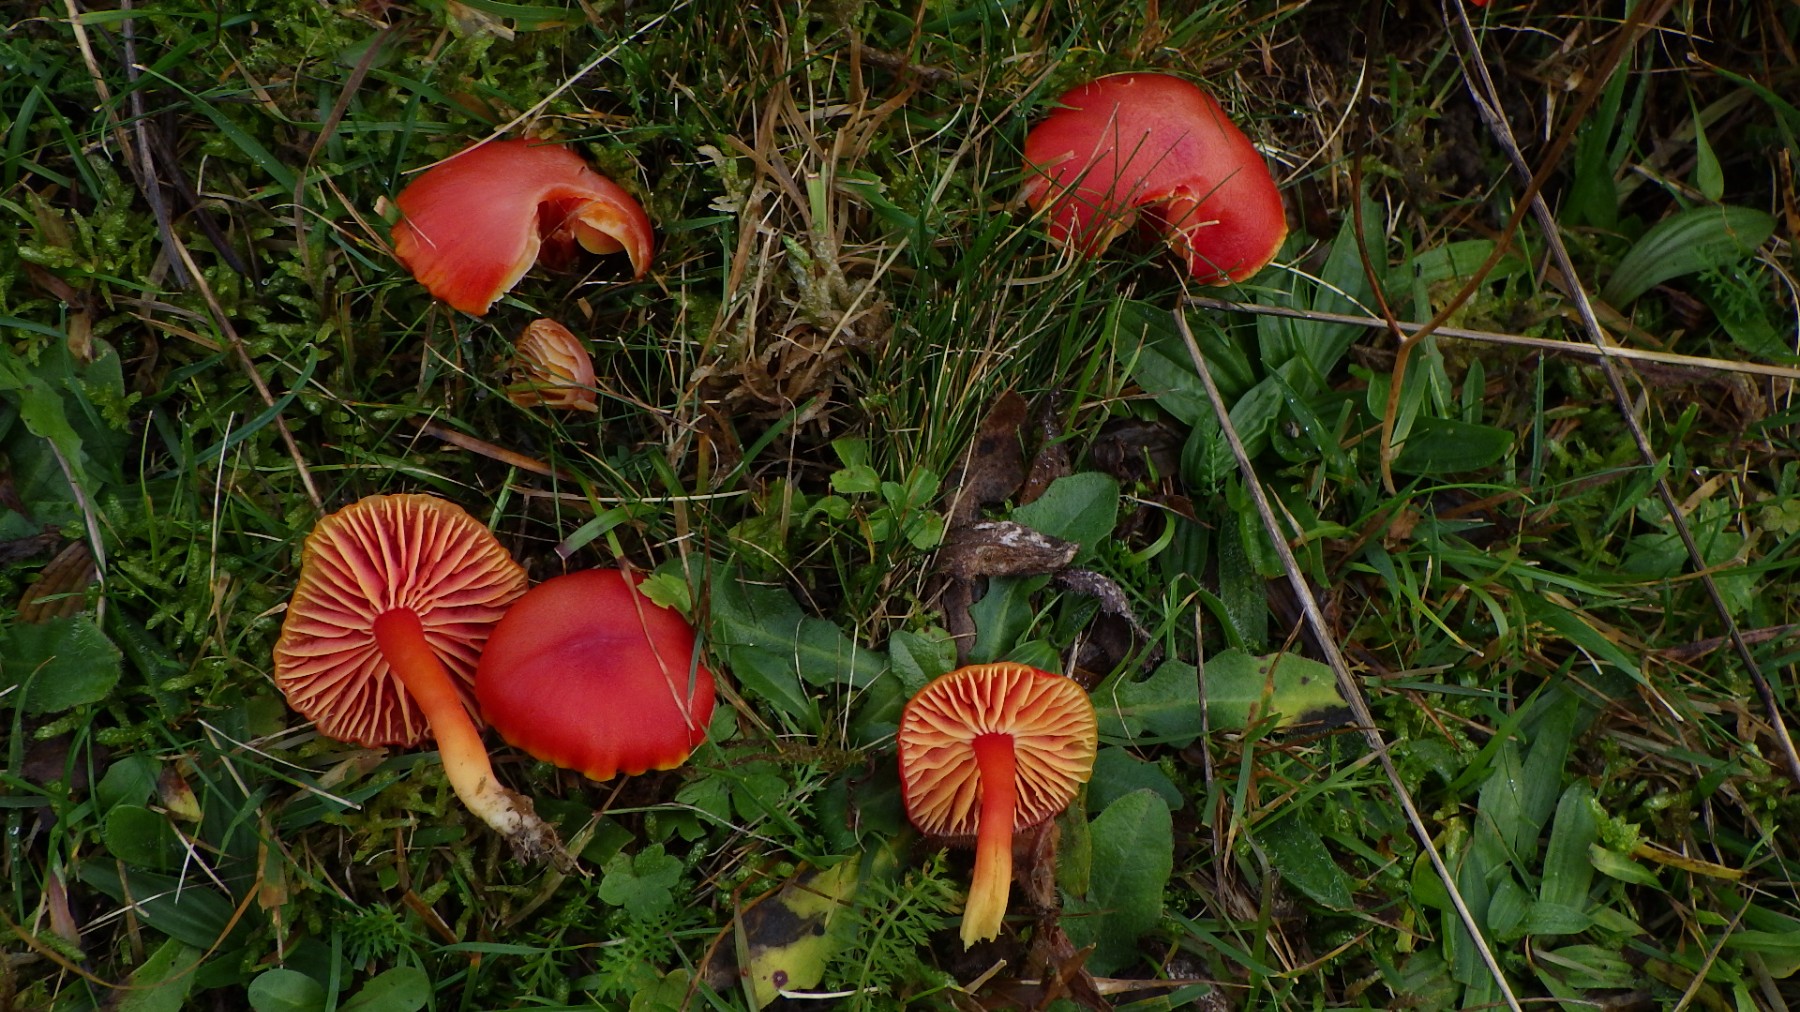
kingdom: Fungi
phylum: Basidiomycota
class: Agaricomycetes
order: Agaricales
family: Hygrophoraceae
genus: Hygrocybe
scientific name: Hygrocybe coccinea
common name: cinnober-vokshat
